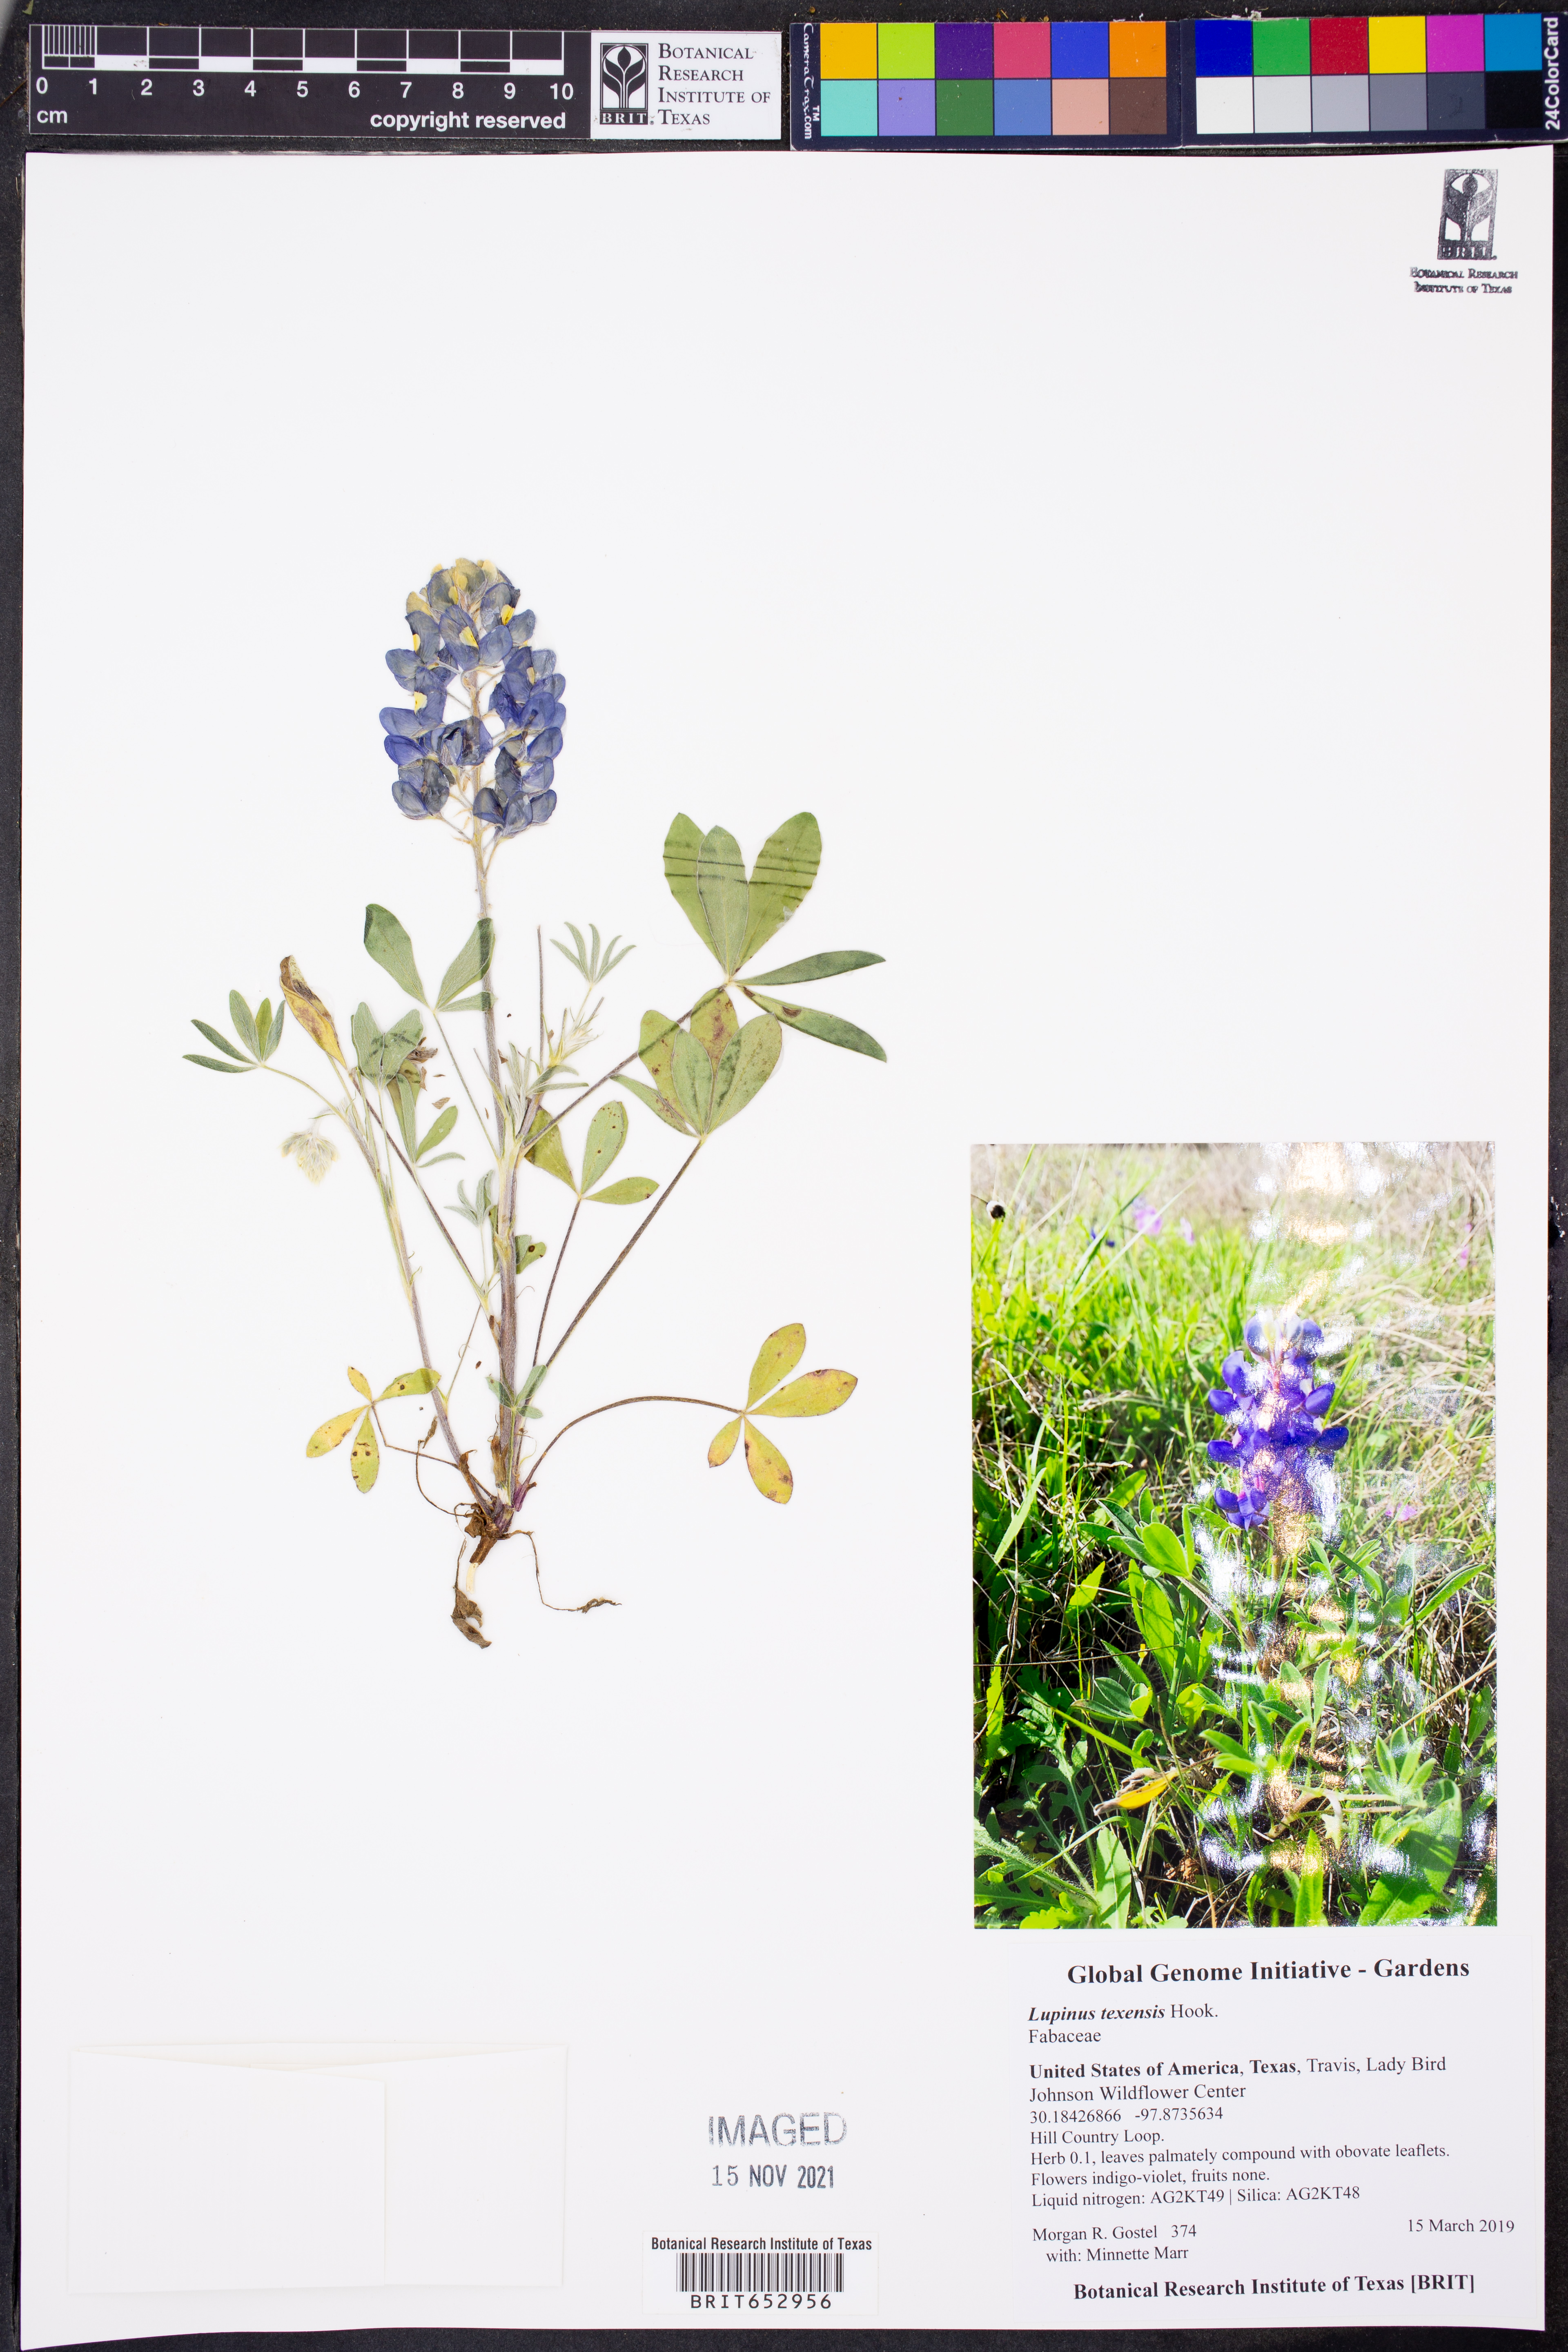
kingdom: Plantae
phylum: Tracheophyta
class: Magnoliopsida
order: Fabales
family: Fabaceae
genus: Lupinus
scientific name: Lupinus texensis
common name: Texas bluebonnet
